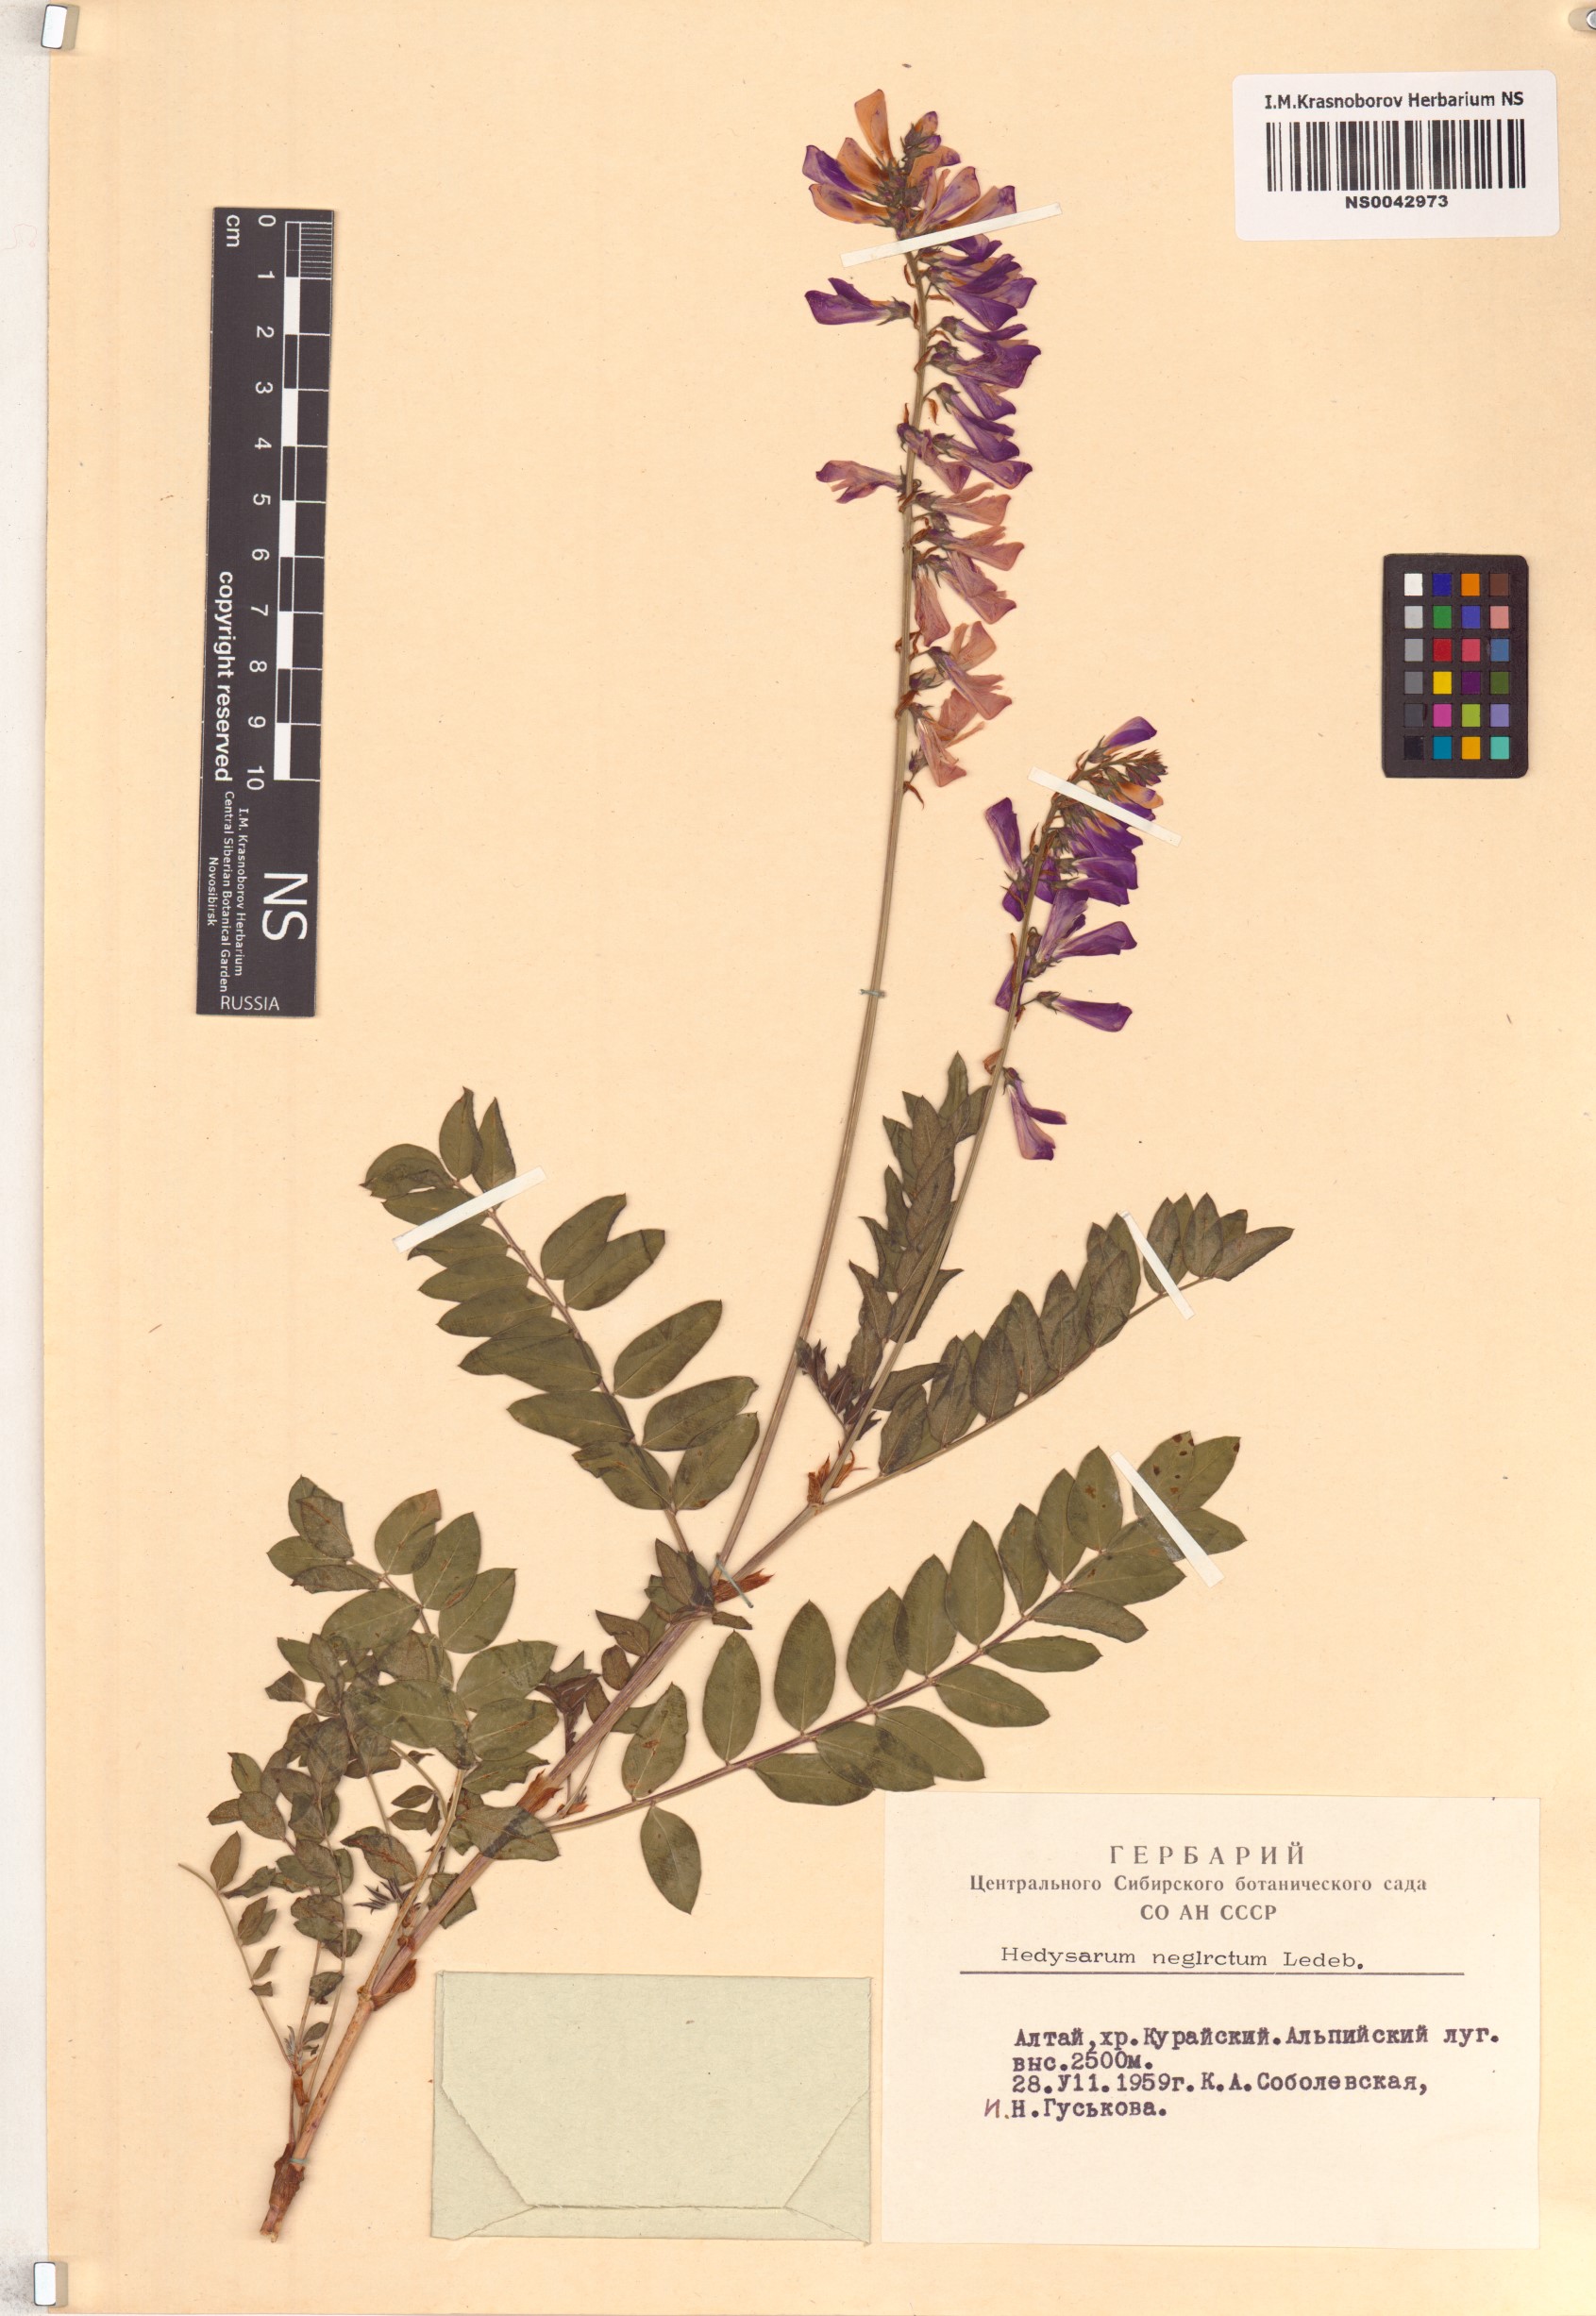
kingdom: Plantae
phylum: Tracheophyta
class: Magnoliopsida
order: Fabales
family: Fabaceae
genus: Hedysarum
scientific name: Hedysarum neglectum
